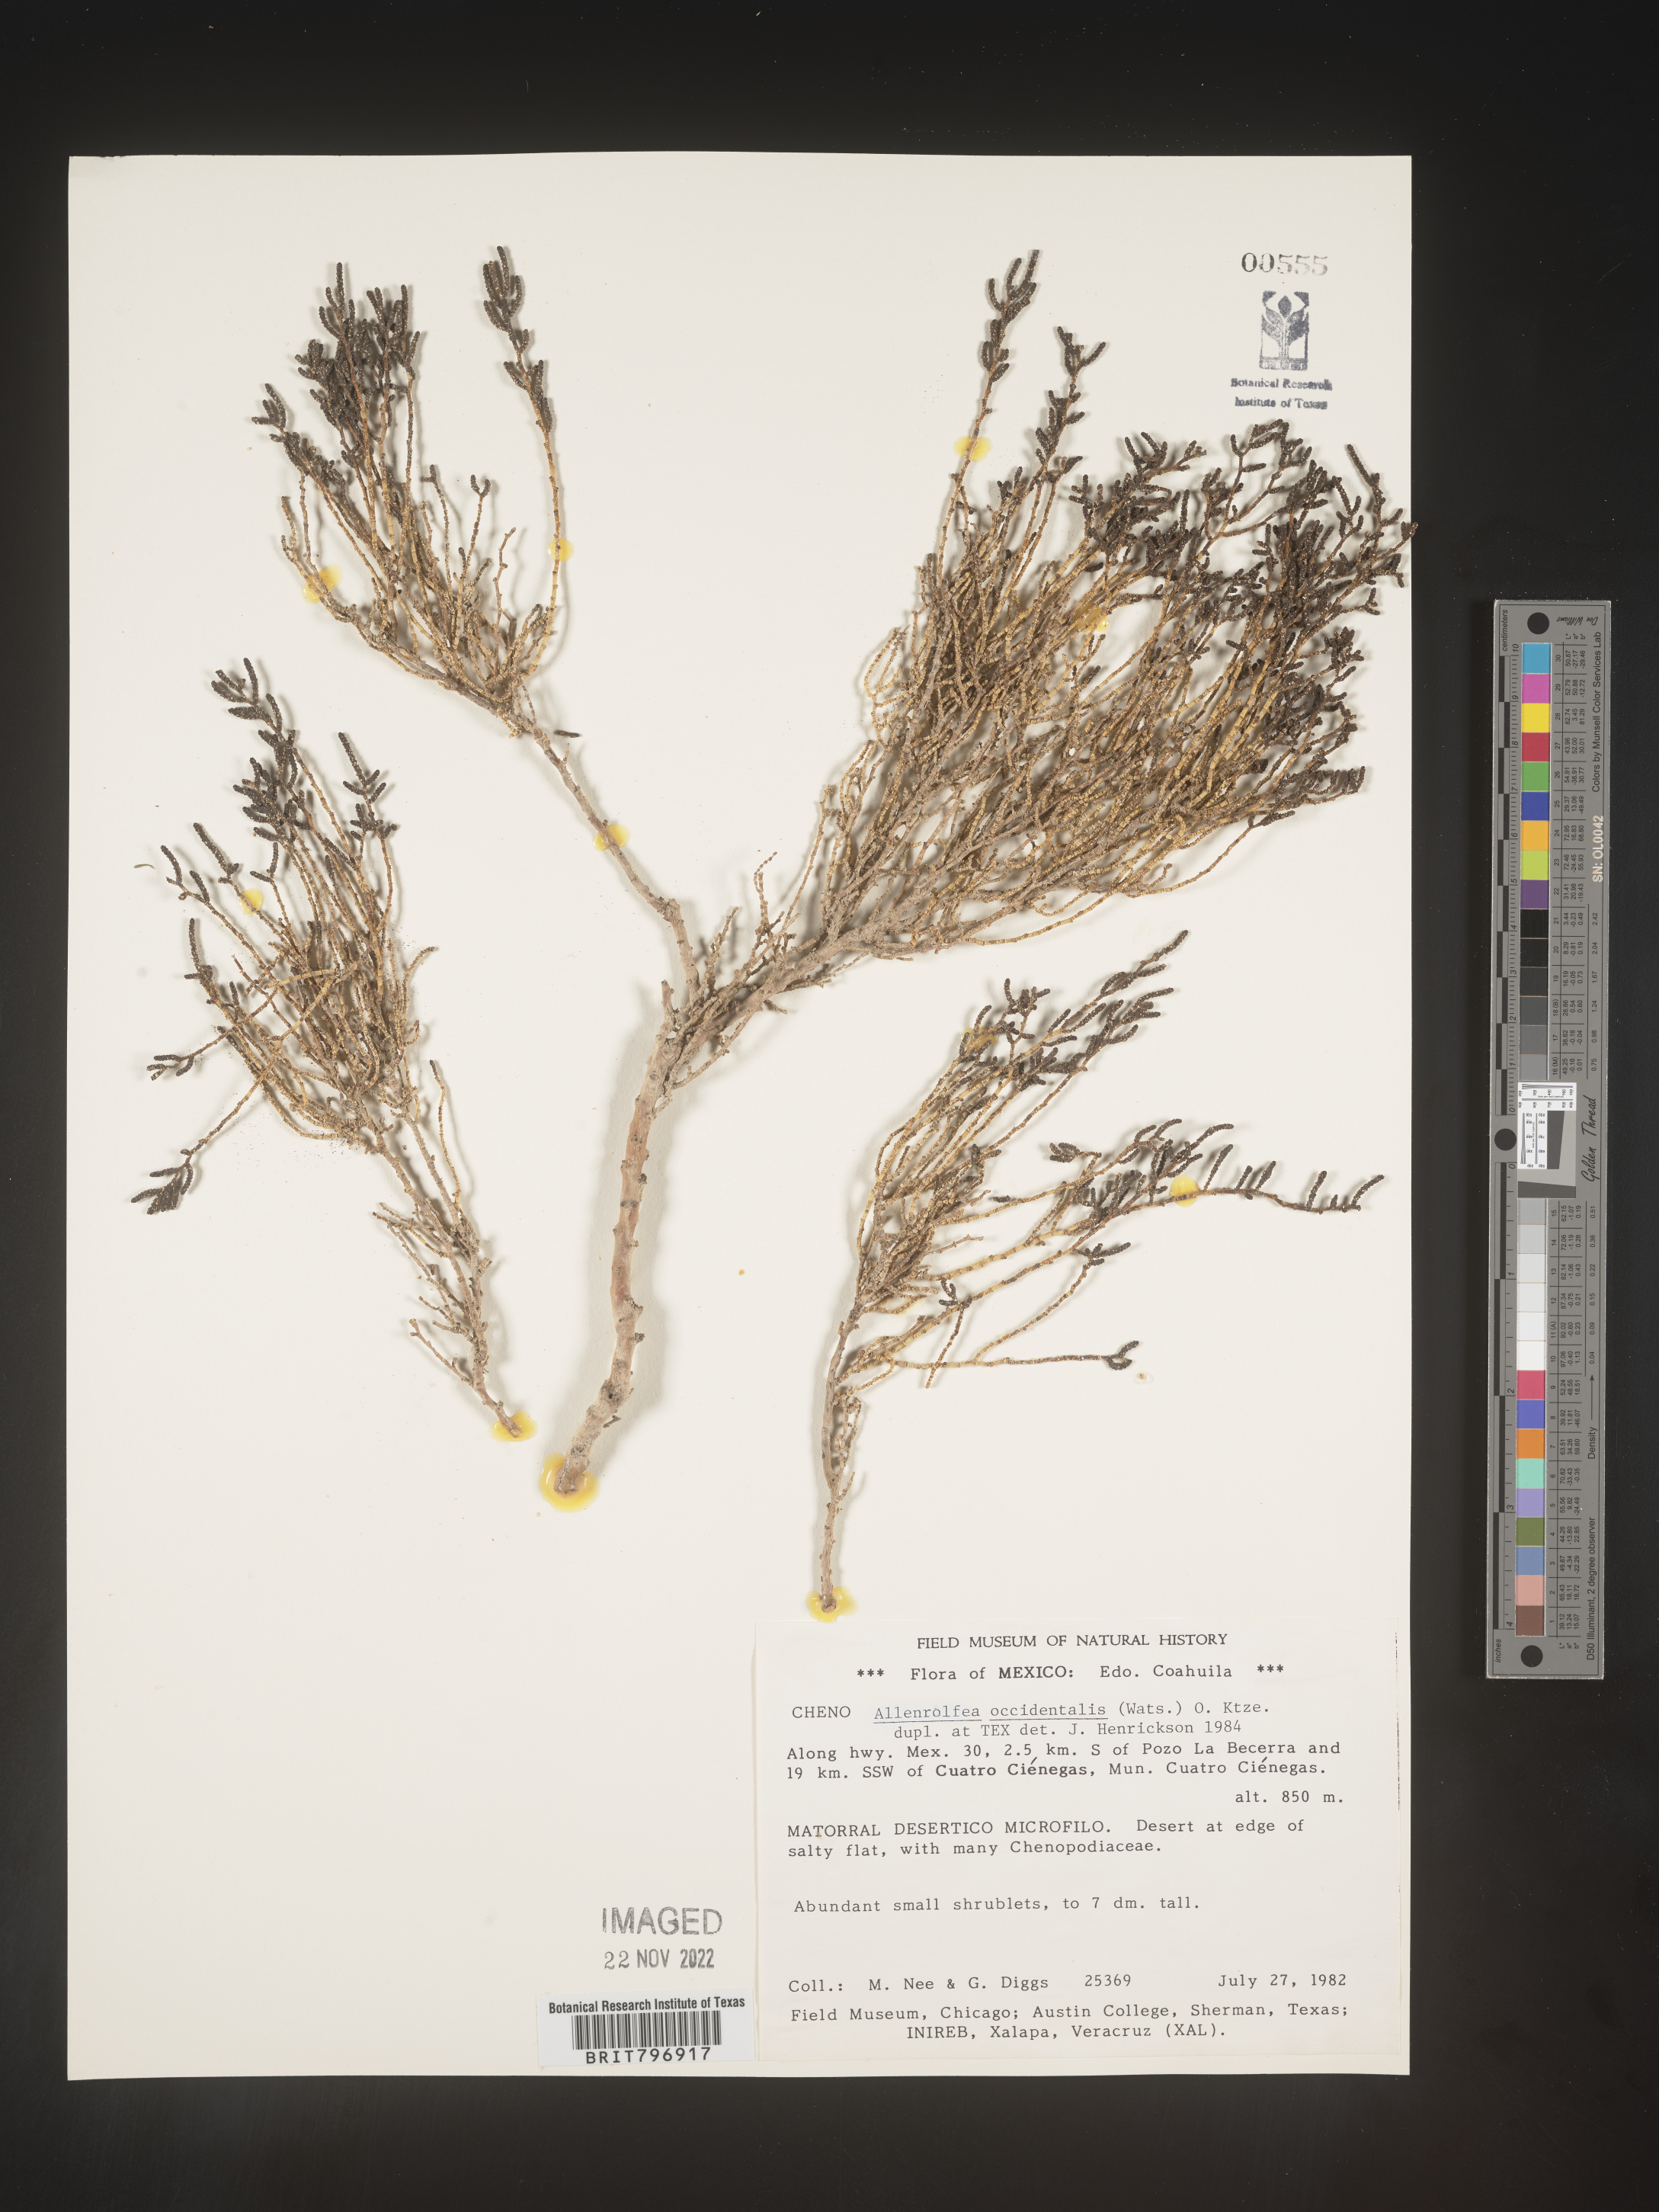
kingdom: Plantae
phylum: Tracheophyta
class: Magnoliopsida
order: Caryophyllales
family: Amaranthaceae
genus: Allenrolfea
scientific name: Allenrolfea
